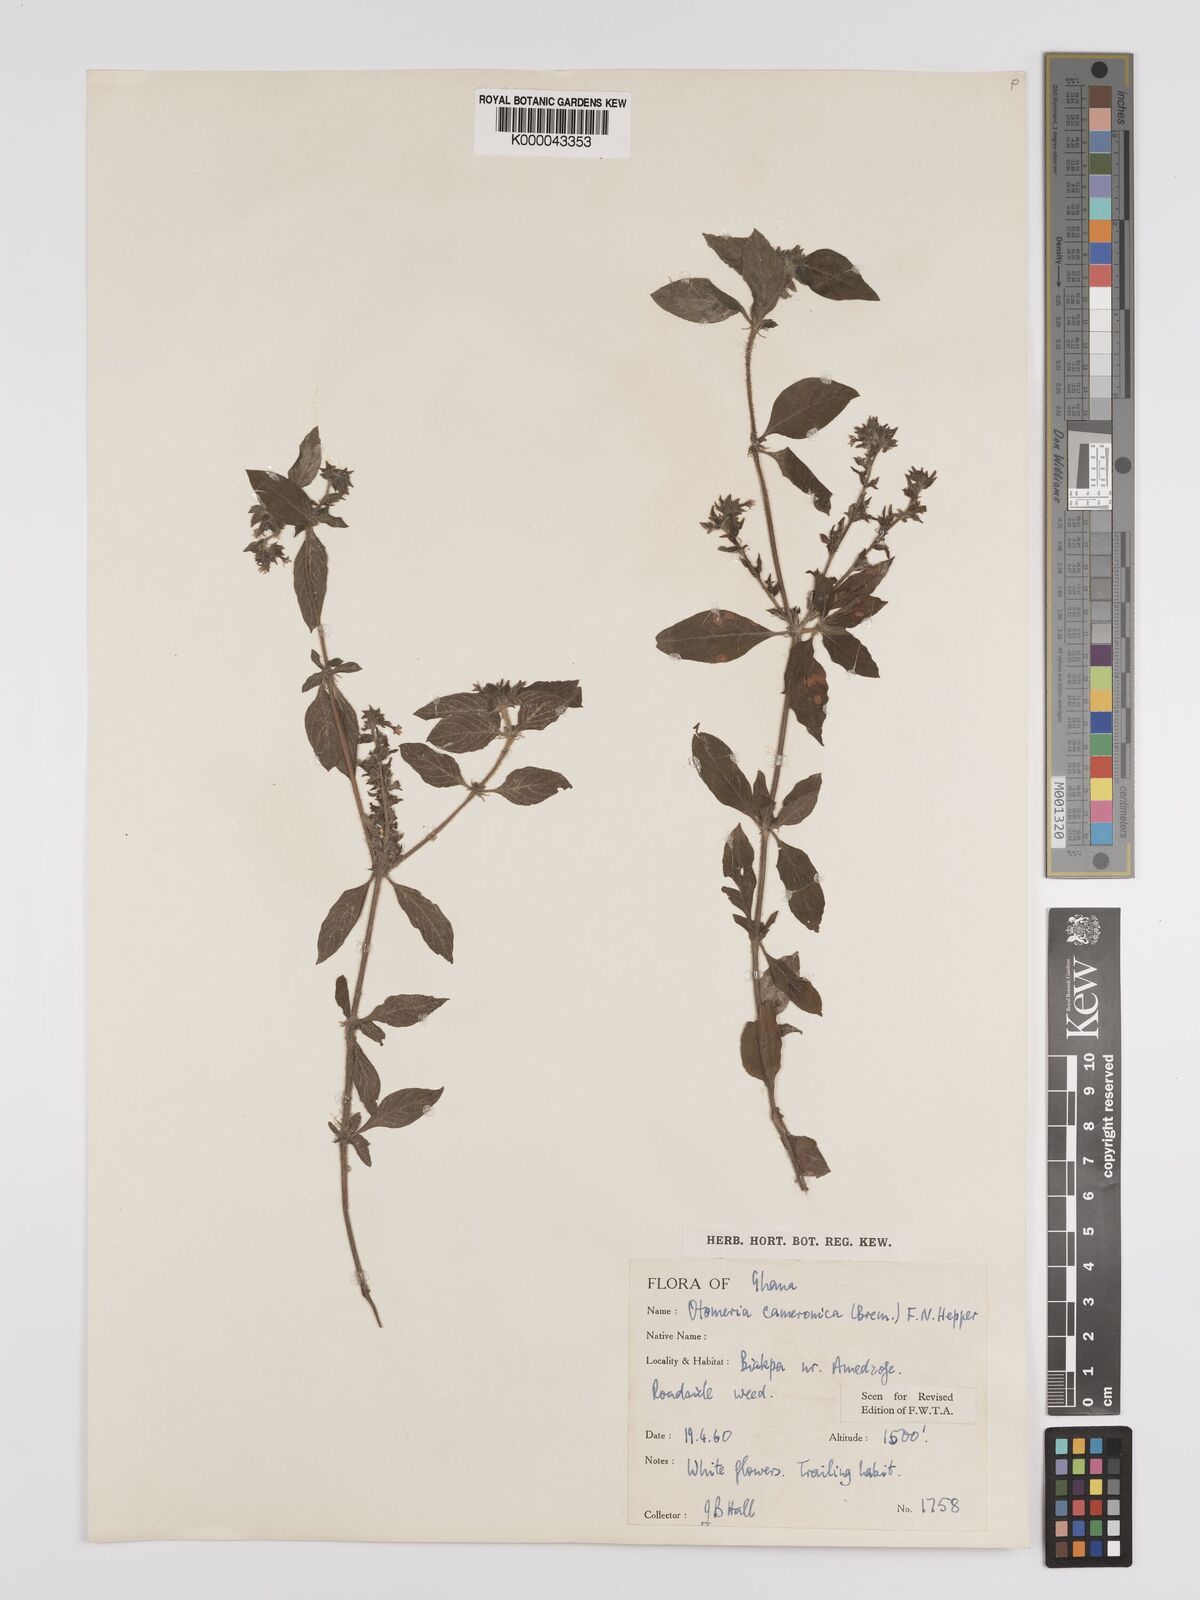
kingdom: Plantae
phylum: Tracheophyta
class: Magnoliopsida
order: Gentianales
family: Rubiaceae
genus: Otomeria
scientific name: Otomeria cameronica
